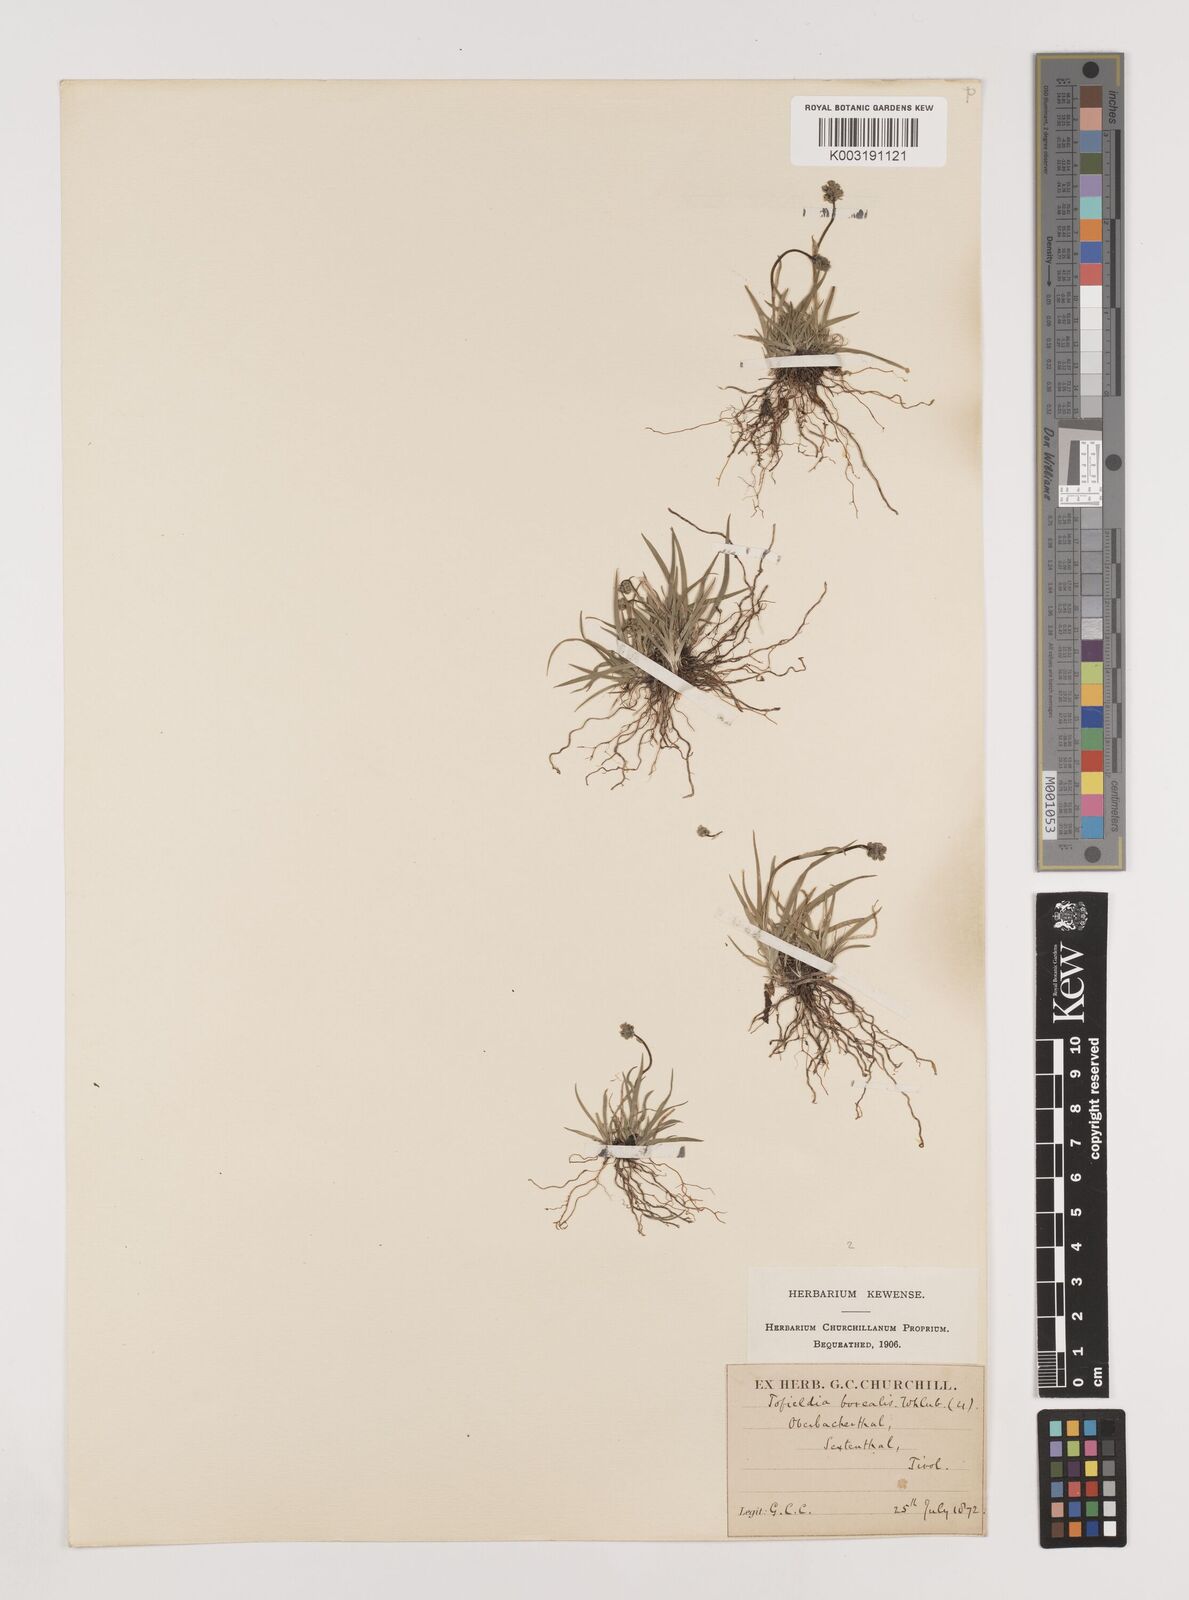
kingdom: Plantae
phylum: Tracheophyta
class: Liliopsida
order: Alismatales
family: Tofieldiaceae
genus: Tofieldia
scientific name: Tofieldia pusilla
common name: Scottish false asphodel
